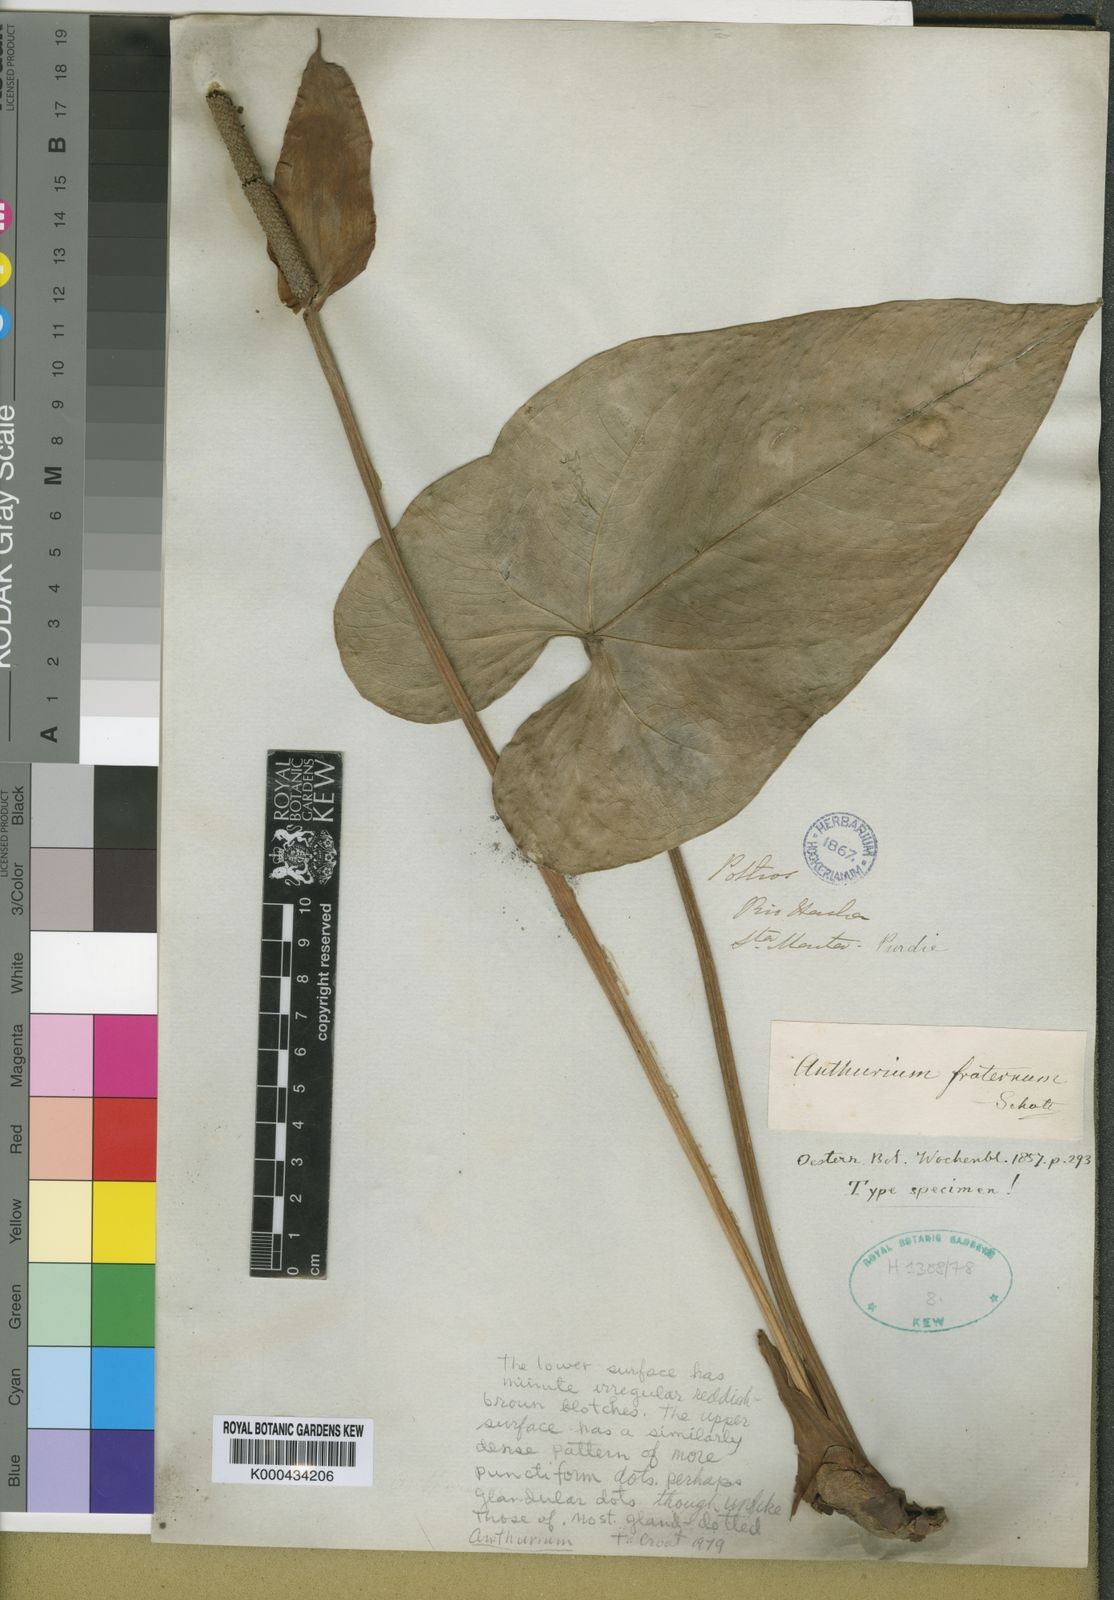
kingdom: Plantae
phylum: Tracheophyta
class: Liliopsida
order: Alismatales
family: Araceae
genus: Anthurium
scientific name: Anthurium nymphaeifolium
